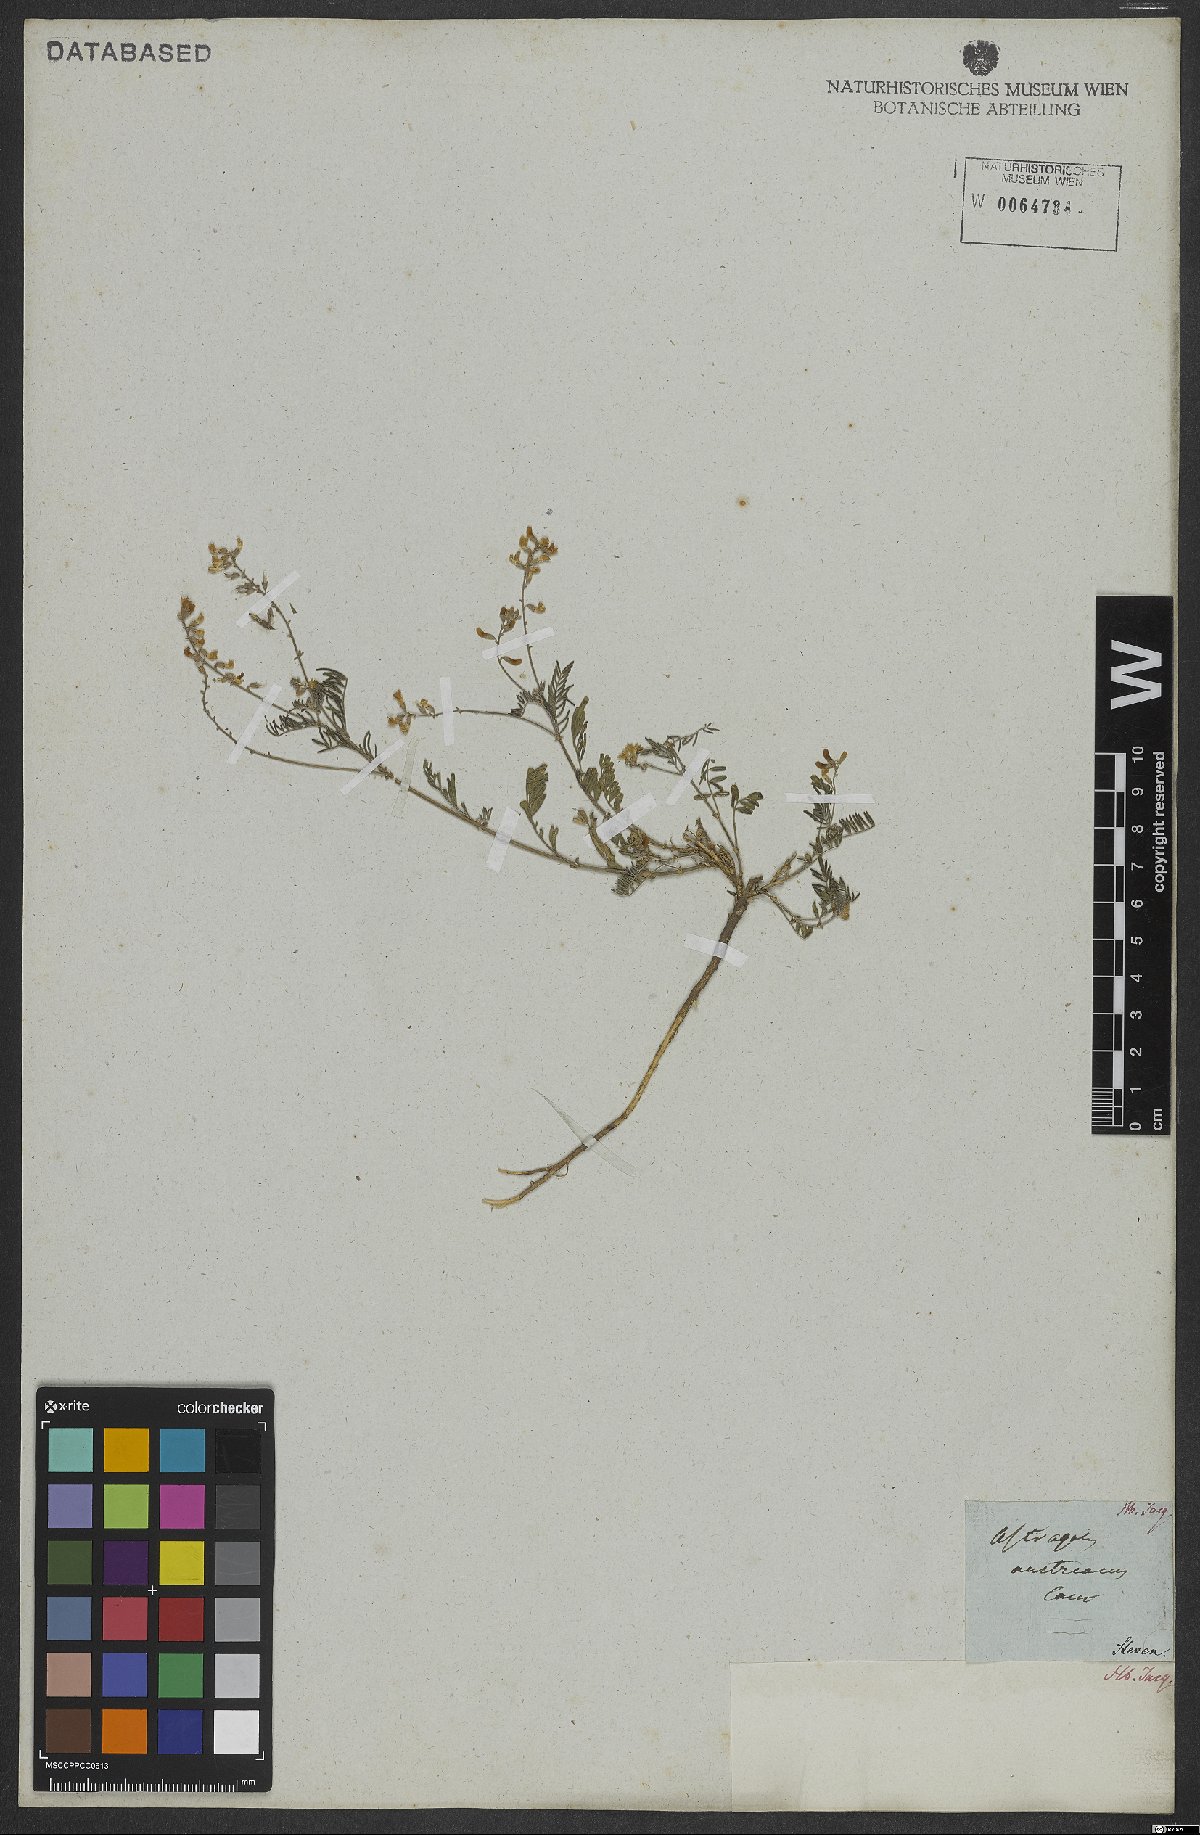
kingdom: Plantae
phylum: Tracheophyta
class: Magnoliopsida
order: Fabales
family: Fabaceae
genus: Astragalus
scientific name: Astragalus austriacus
